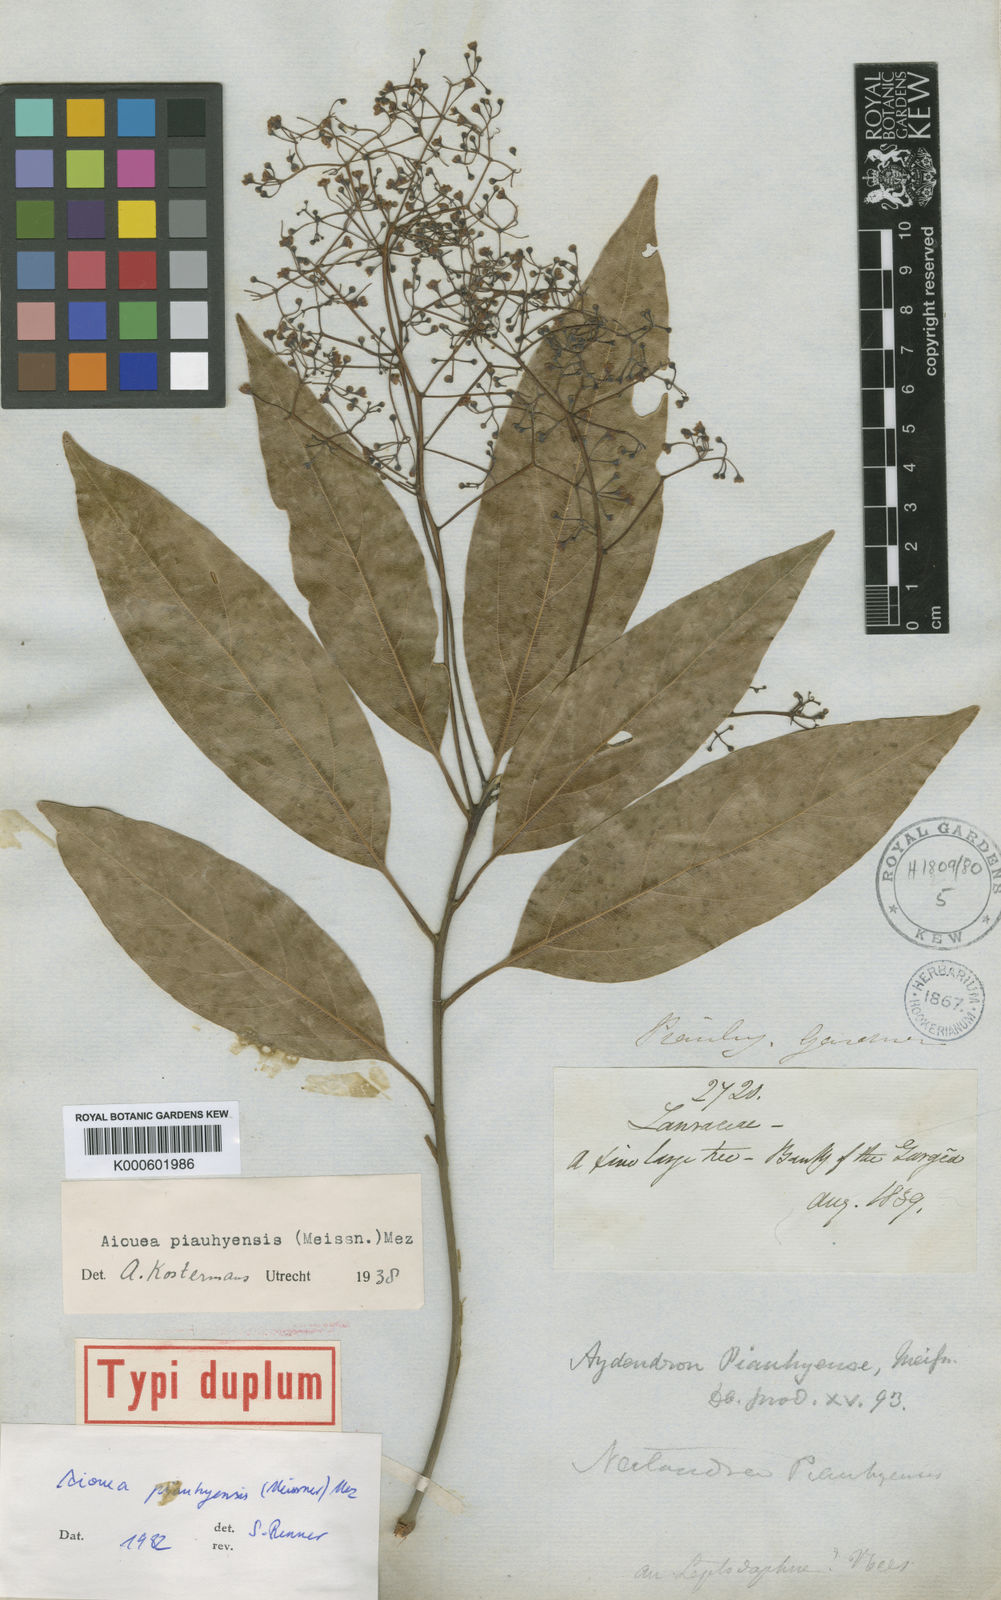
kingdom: Plantae
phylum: Tracheophyta
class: Magnoliopsida
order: Laurales
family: Lauraceae
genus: Aiouea
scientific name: Aiouea piauhyensis
